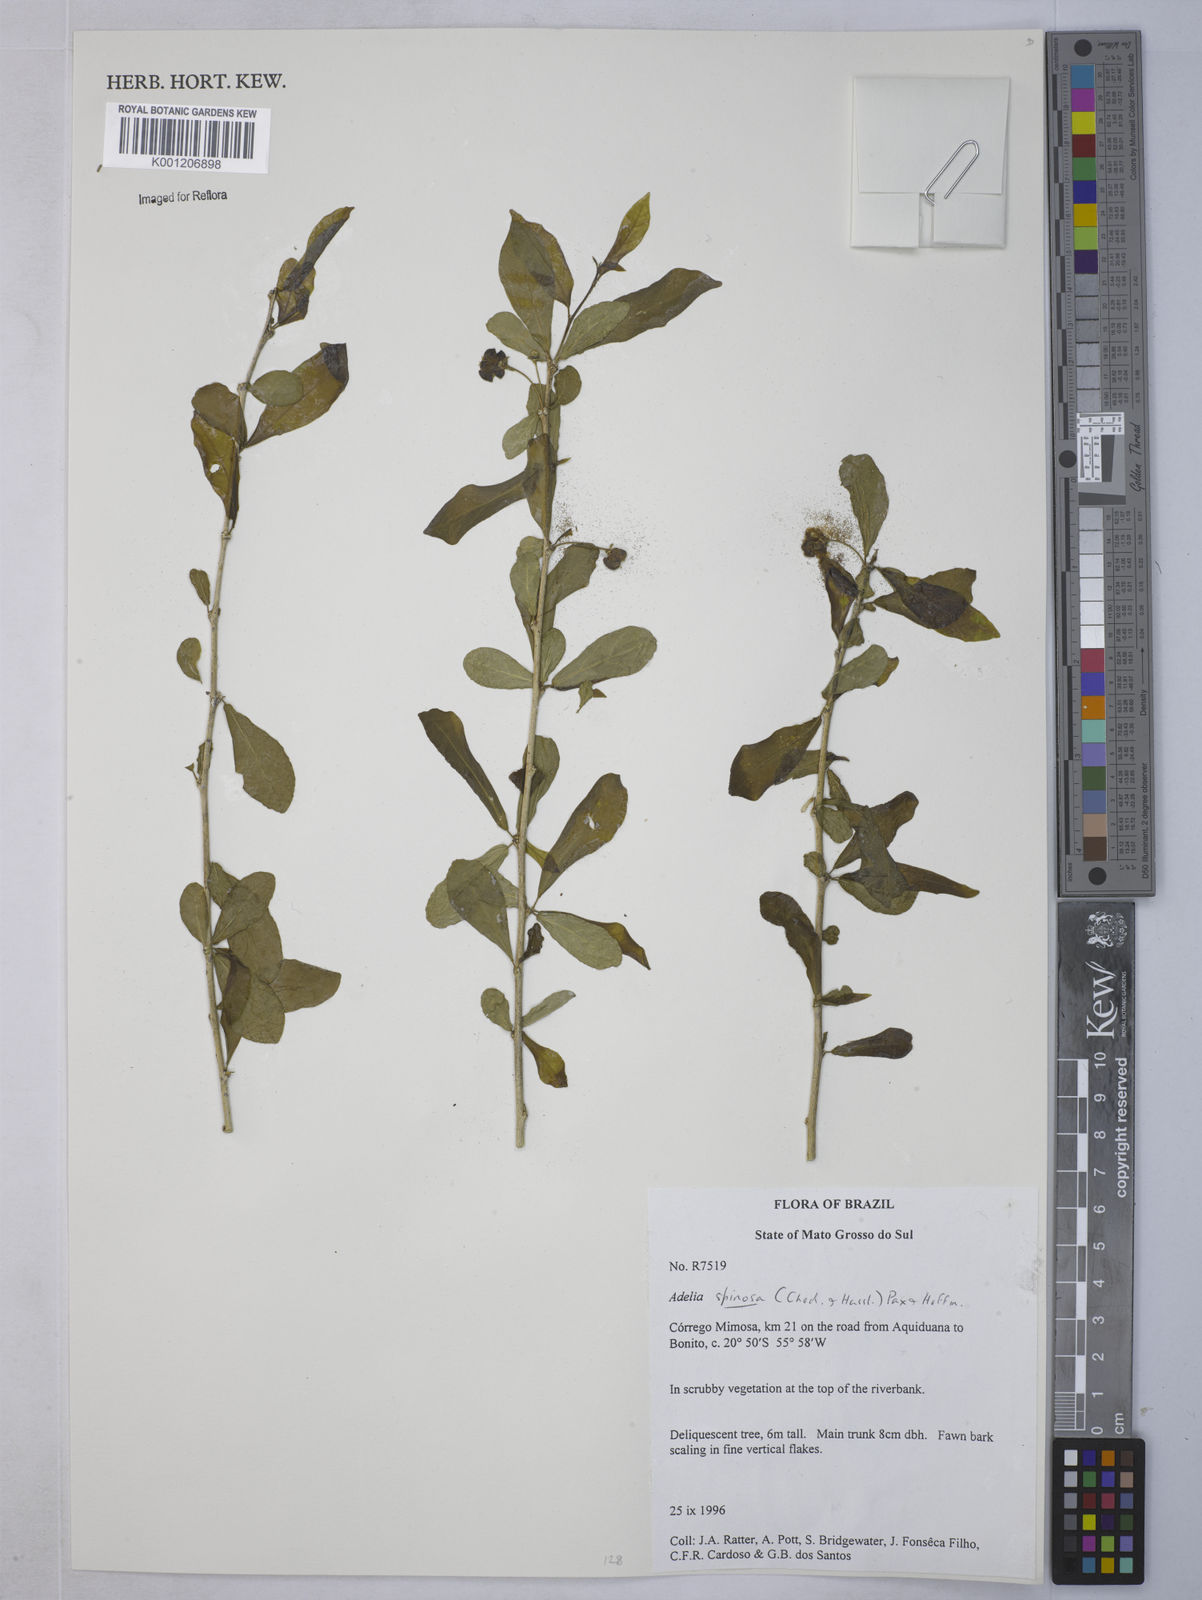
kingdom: Plantae
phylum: Tracheophyta
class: Magnoliopsida
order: Malpighiales
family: Euphorbiaceae
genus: Adelia
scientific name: Adelia membranifolia
